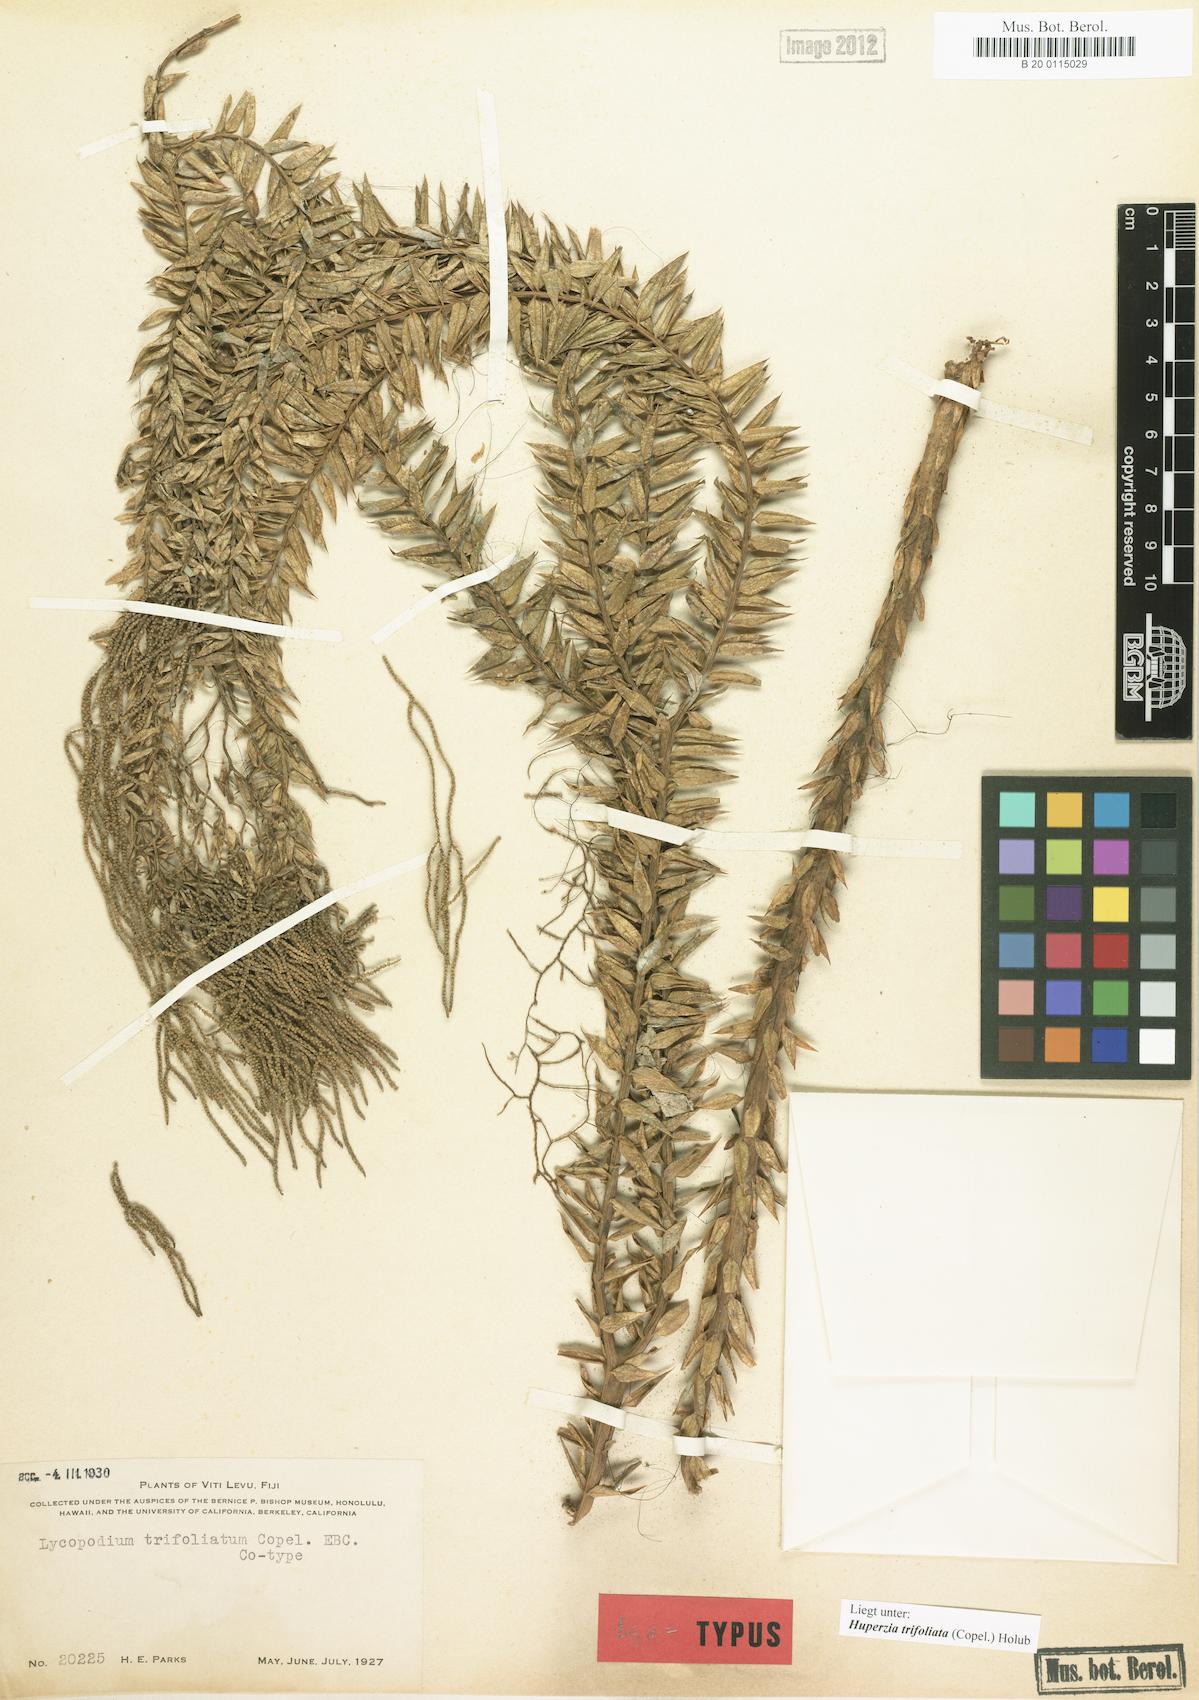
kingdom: Plantae
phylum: Tracheophyta
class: Lycopodiopsida
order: Lycopodiales
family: Lycopodiaceae
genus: Phlegmariurus
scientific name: Phlegmariurus trifoliatus
